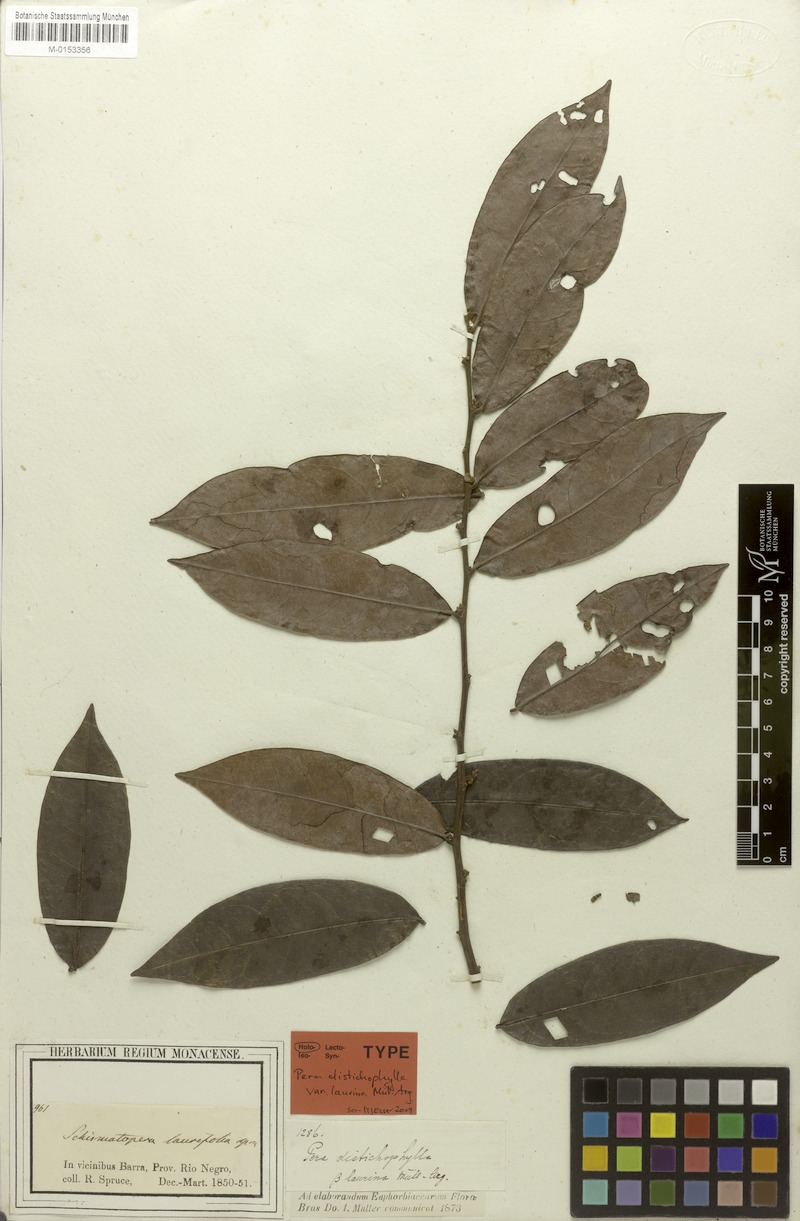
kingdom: Plantae
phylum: Tracheophyta
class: Magnoliopsida
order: Malpighiales
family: Peraceae
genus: Pera
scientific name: Pera distichophylla
